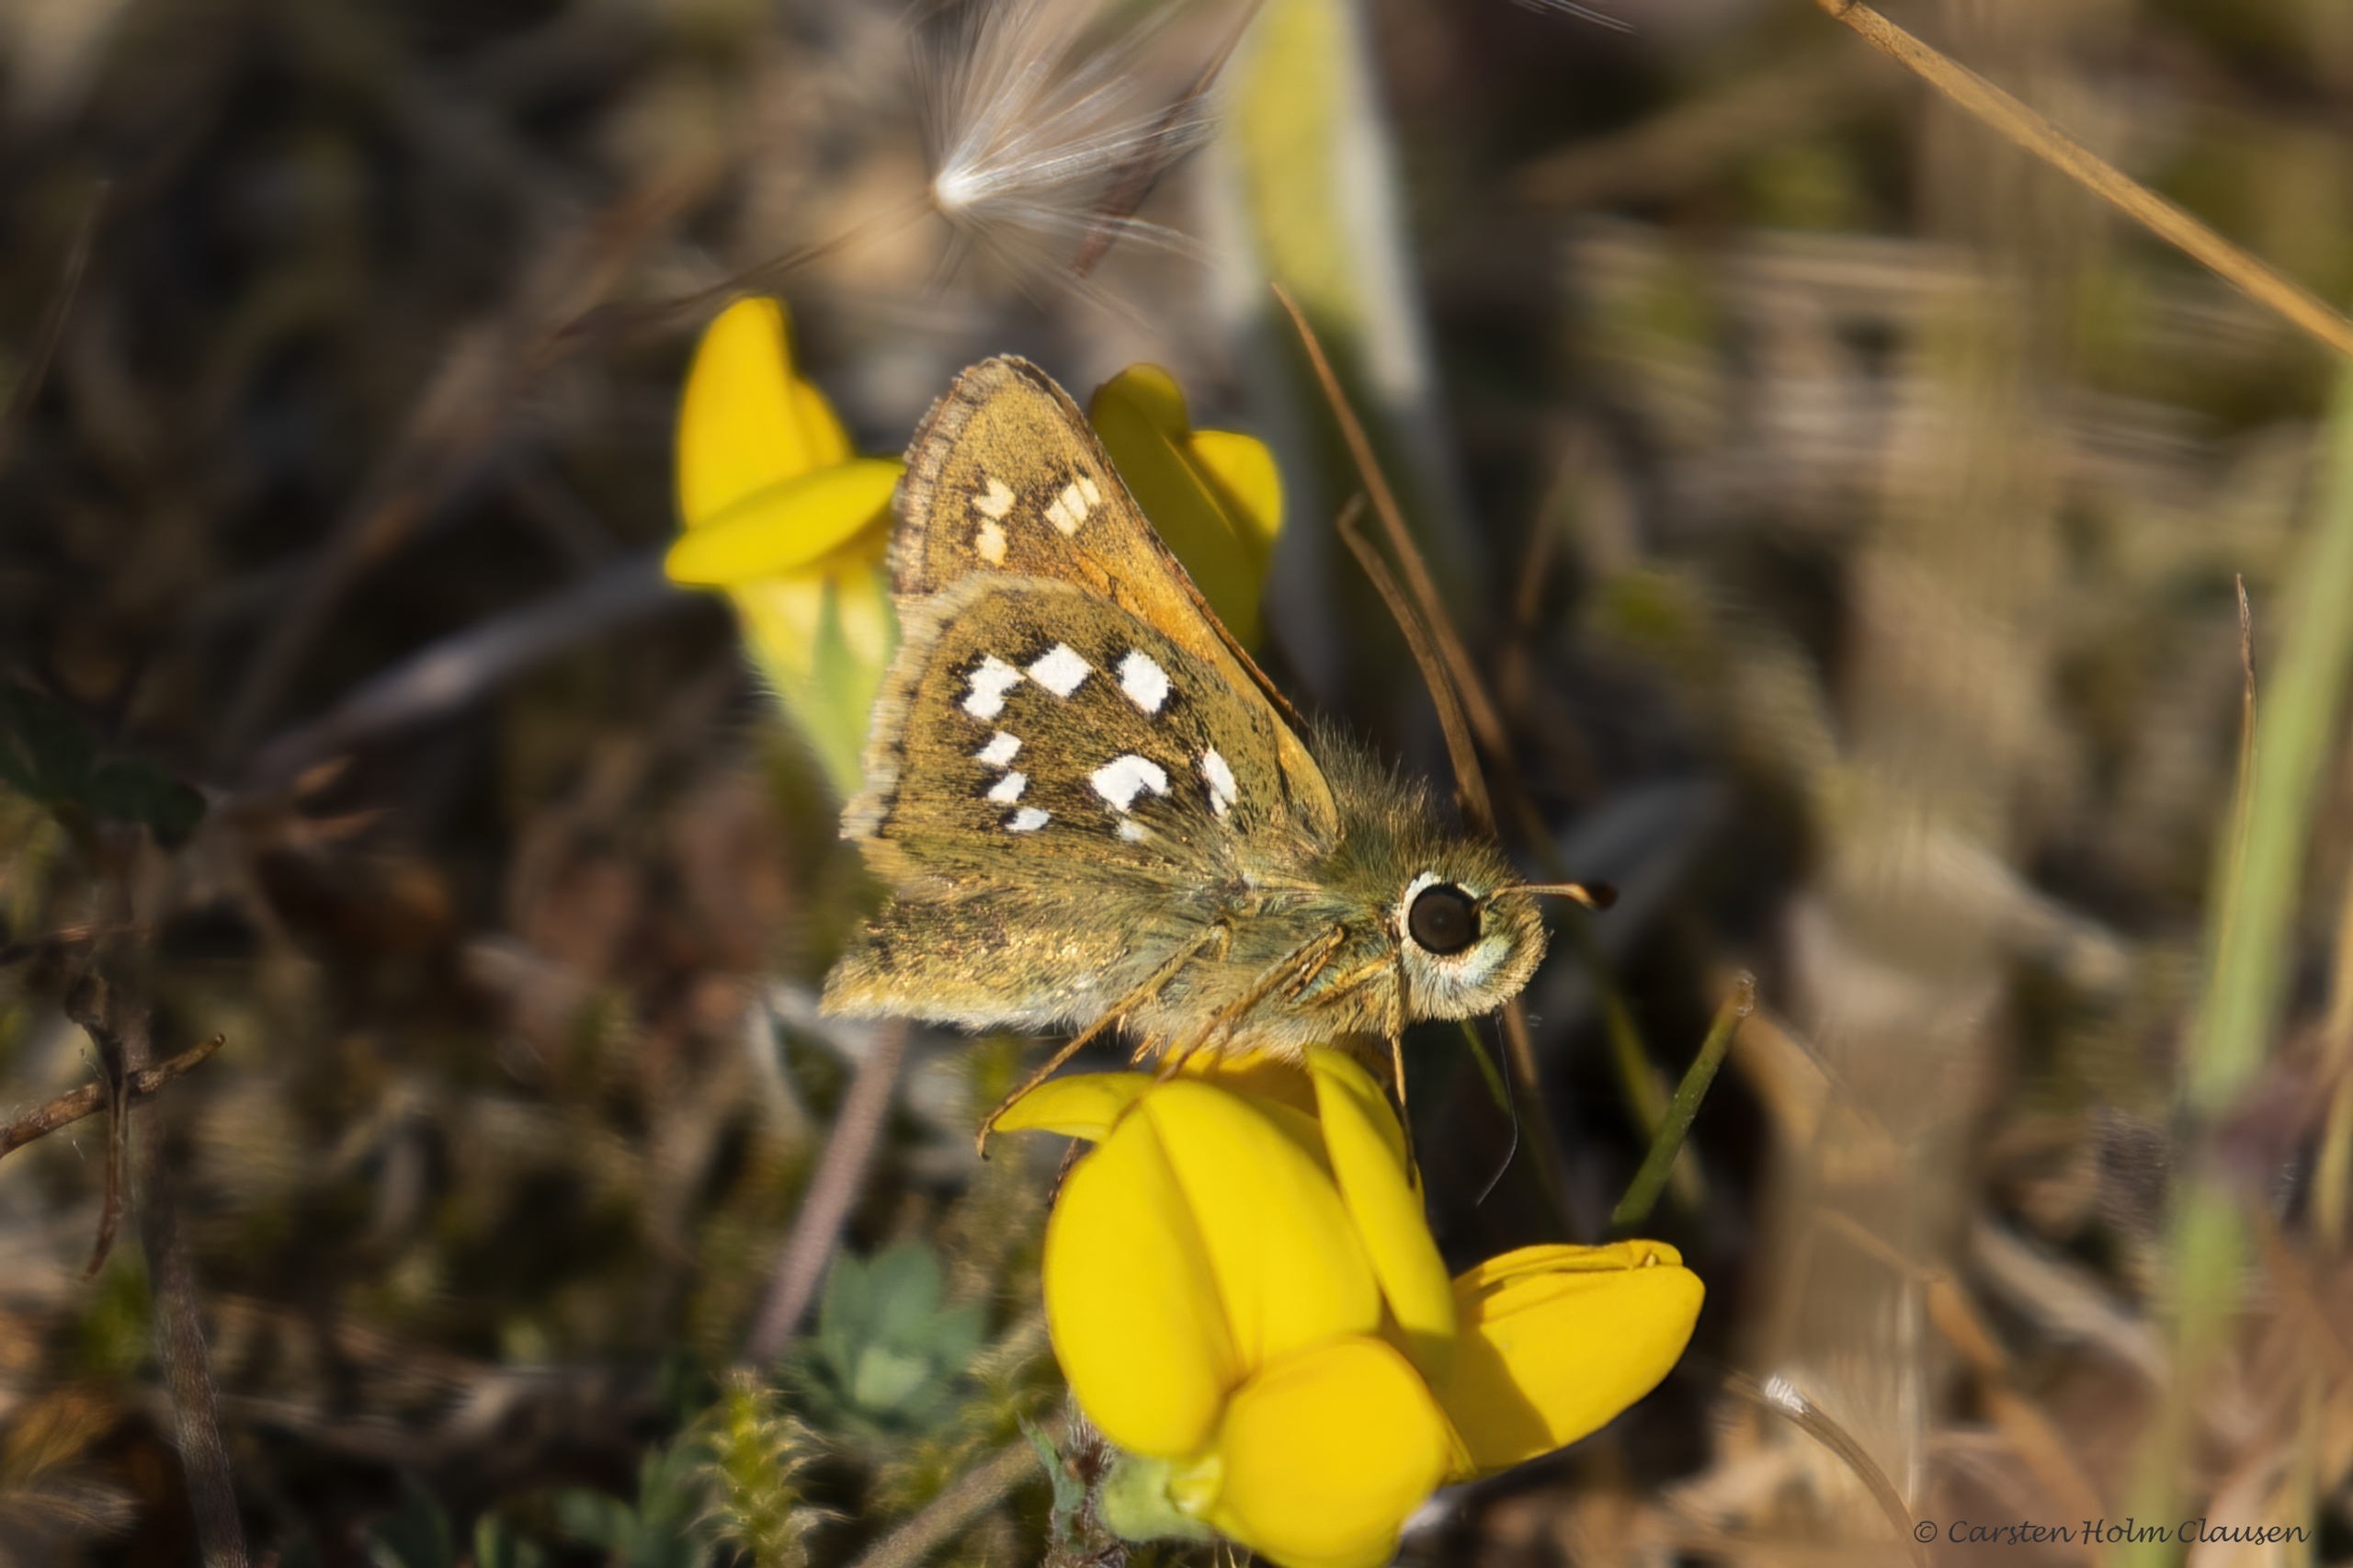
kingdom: Animalia
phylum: Arthropoda
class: Insecta
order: Lepidoptera
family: Hesperiidae
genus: Hesperia
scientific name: Hesperia comma
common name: Kommabredpande
